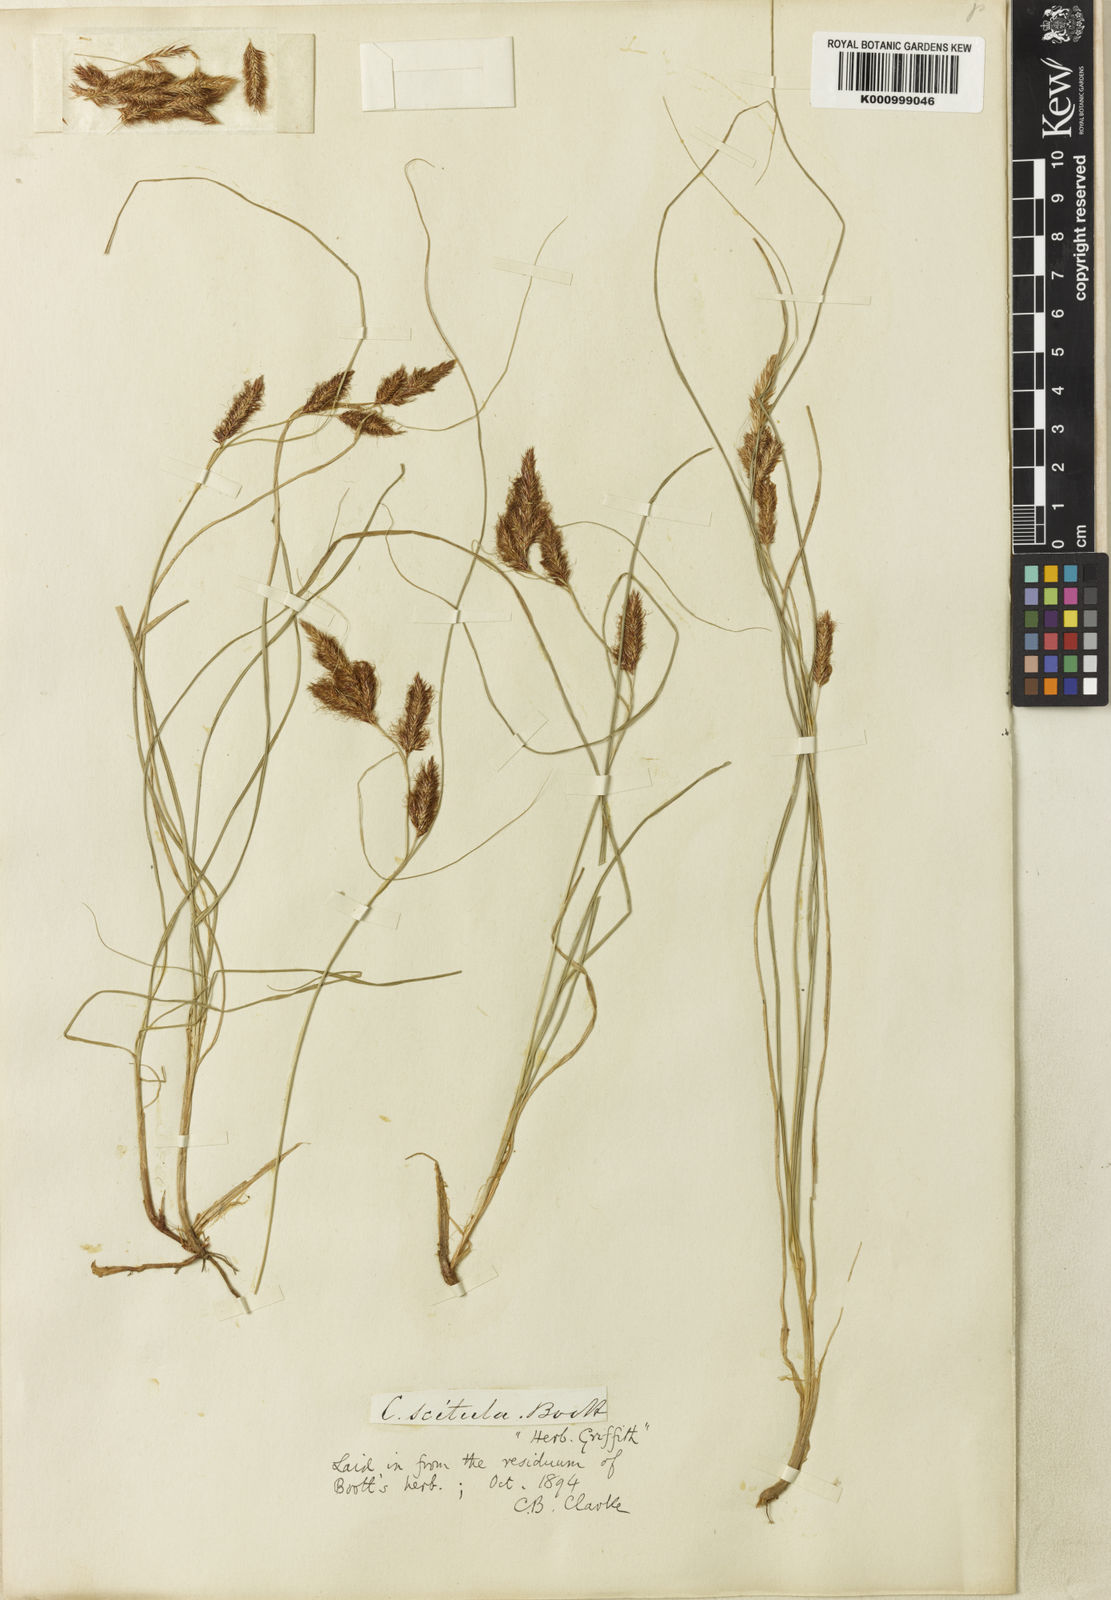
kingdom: Plantae
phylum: Tracheophyta
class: Liliopsida
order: Poales
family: Cyperaceae
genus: Carex
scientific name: Carex scitula
